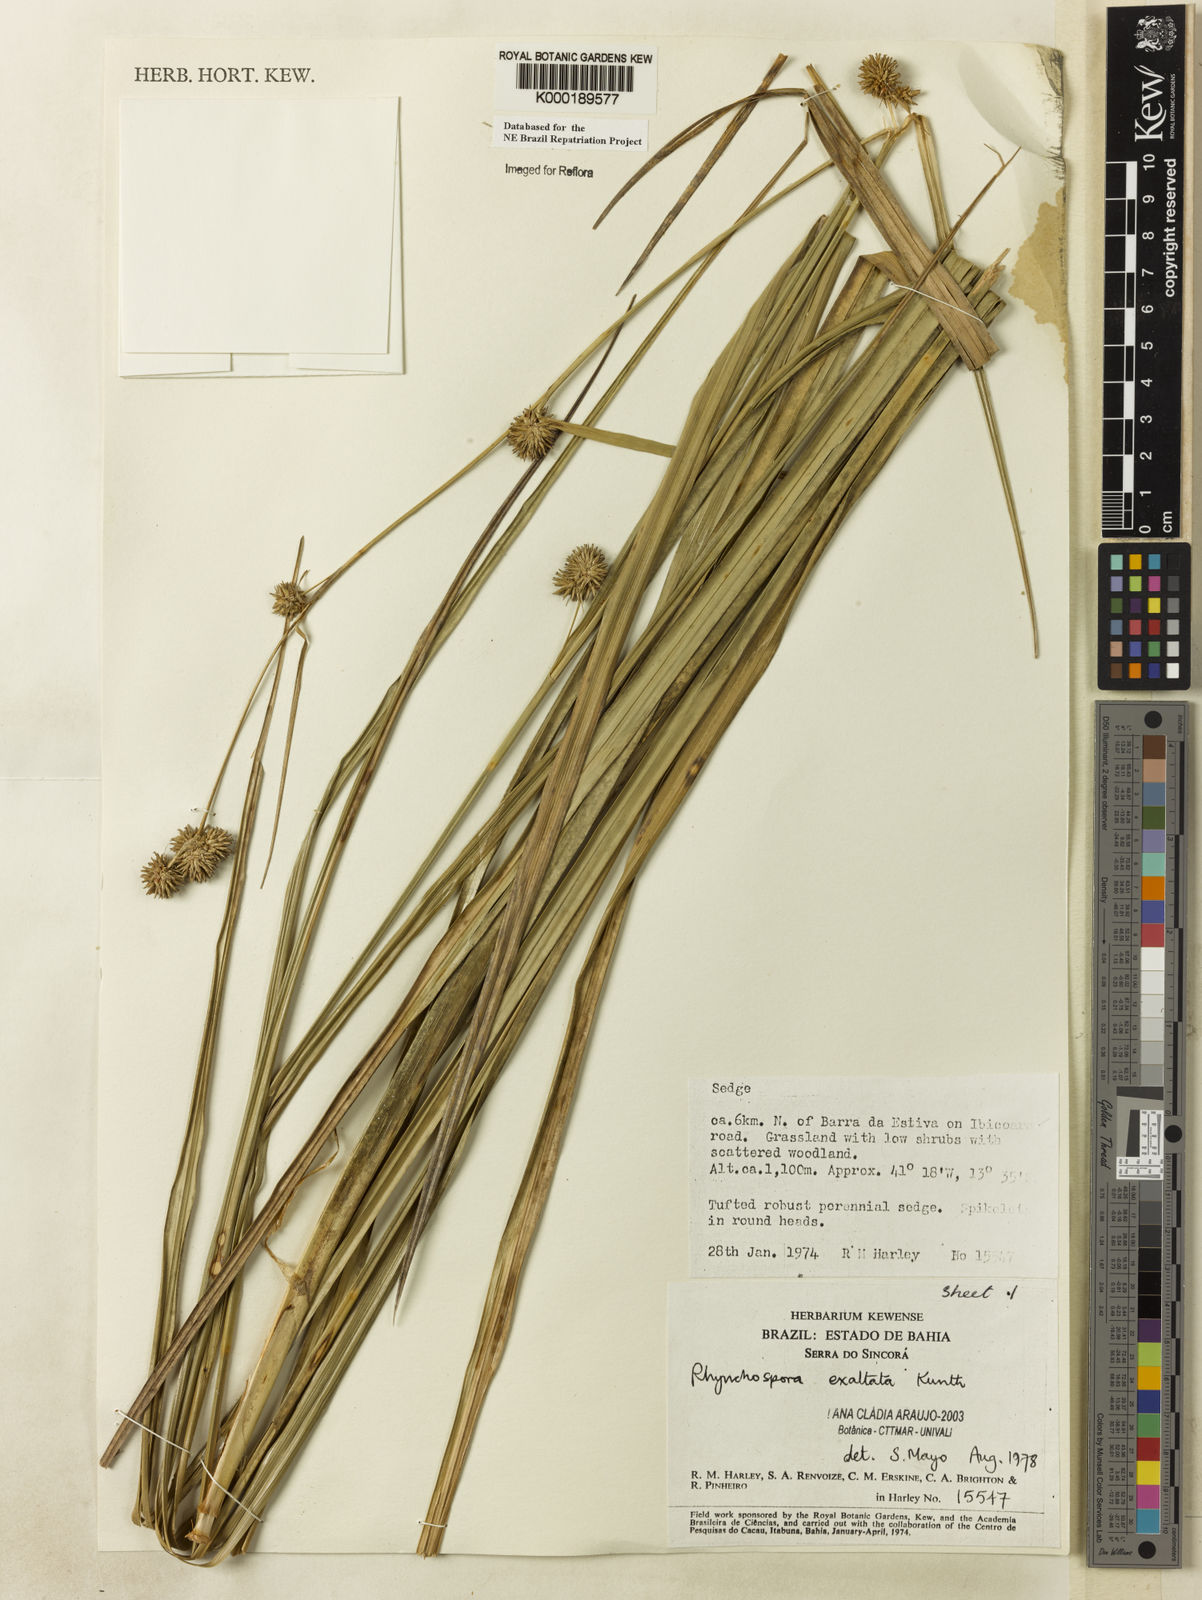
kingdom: Plantae
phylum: Tracheophyta
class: Liliopsida
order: Poales
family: Cyperaceae
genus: Rhynchospora
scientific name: Rhynchospora exaltata
